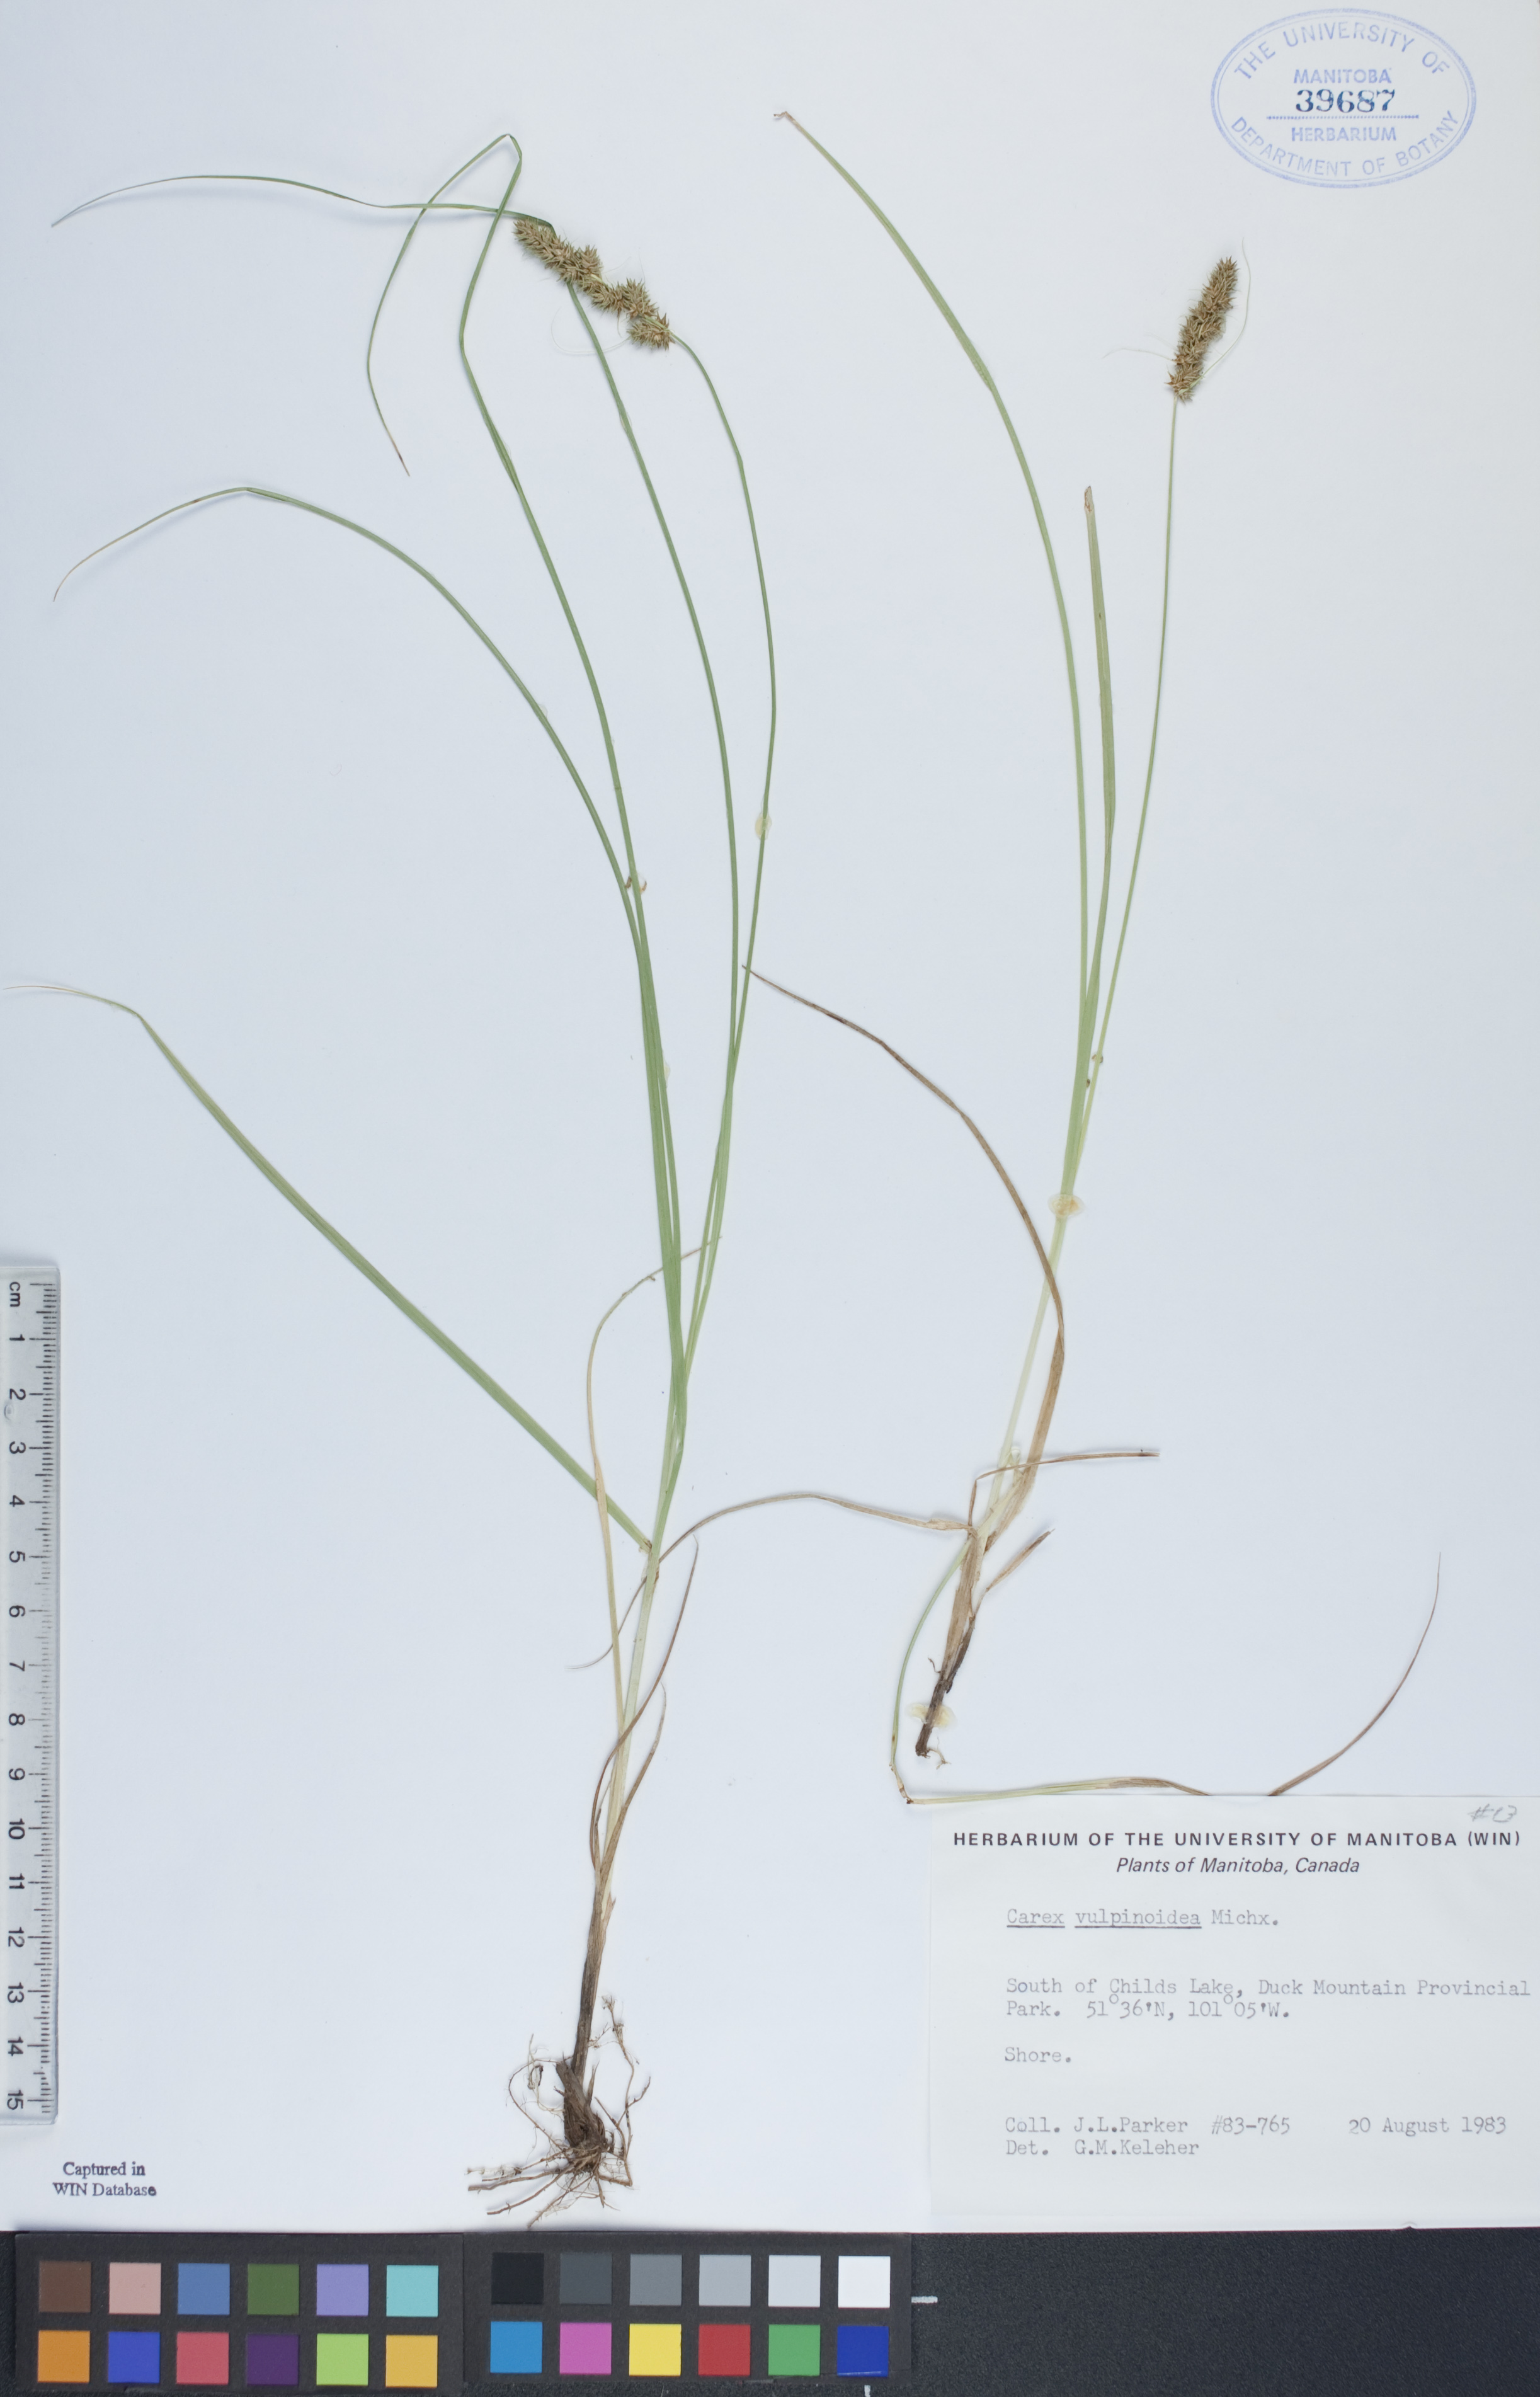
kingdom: Plantae
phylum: Tracheophyta
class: Liliopsida
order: Poales
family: Cyperaceae
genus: Carex
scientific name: Carex vulpinoidea
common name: American fox-sedge
